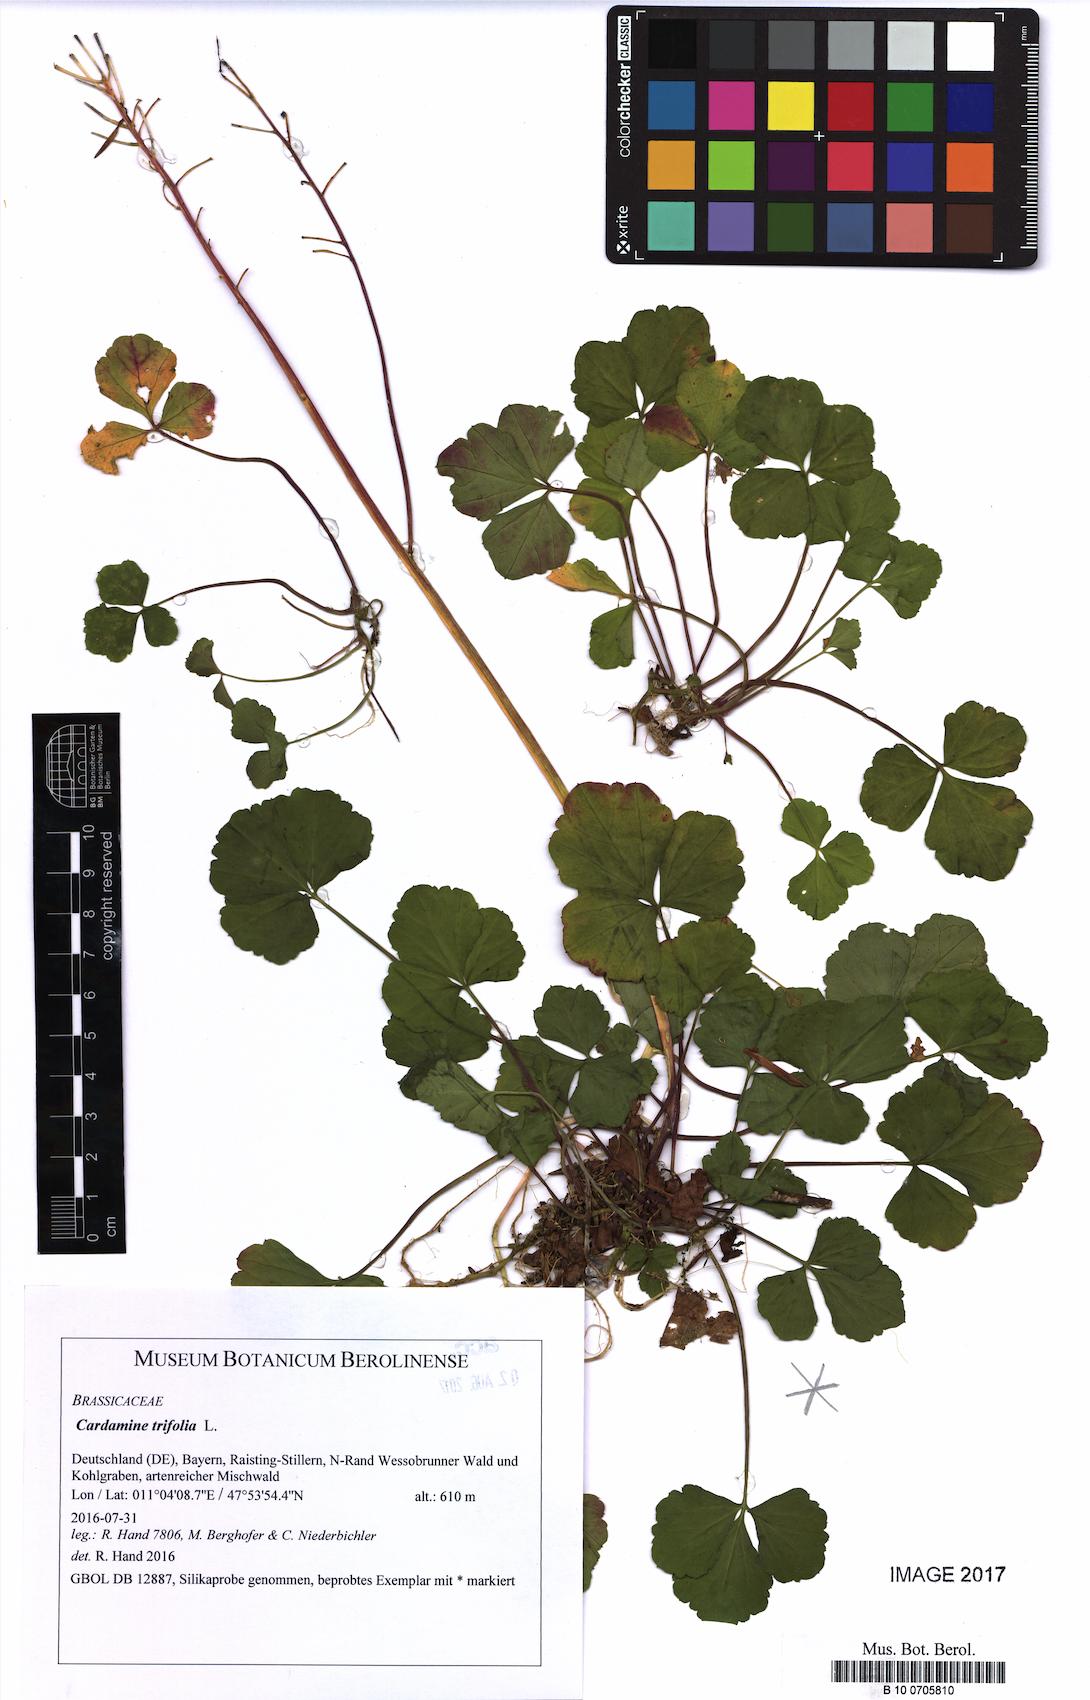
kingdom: Plantae
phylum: Tracheophyta
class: Magnoliopsida
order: Brassicales
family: Brassicaceae
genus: Cardamine
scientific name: Cardamine trifolia
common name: Trefoil cress
